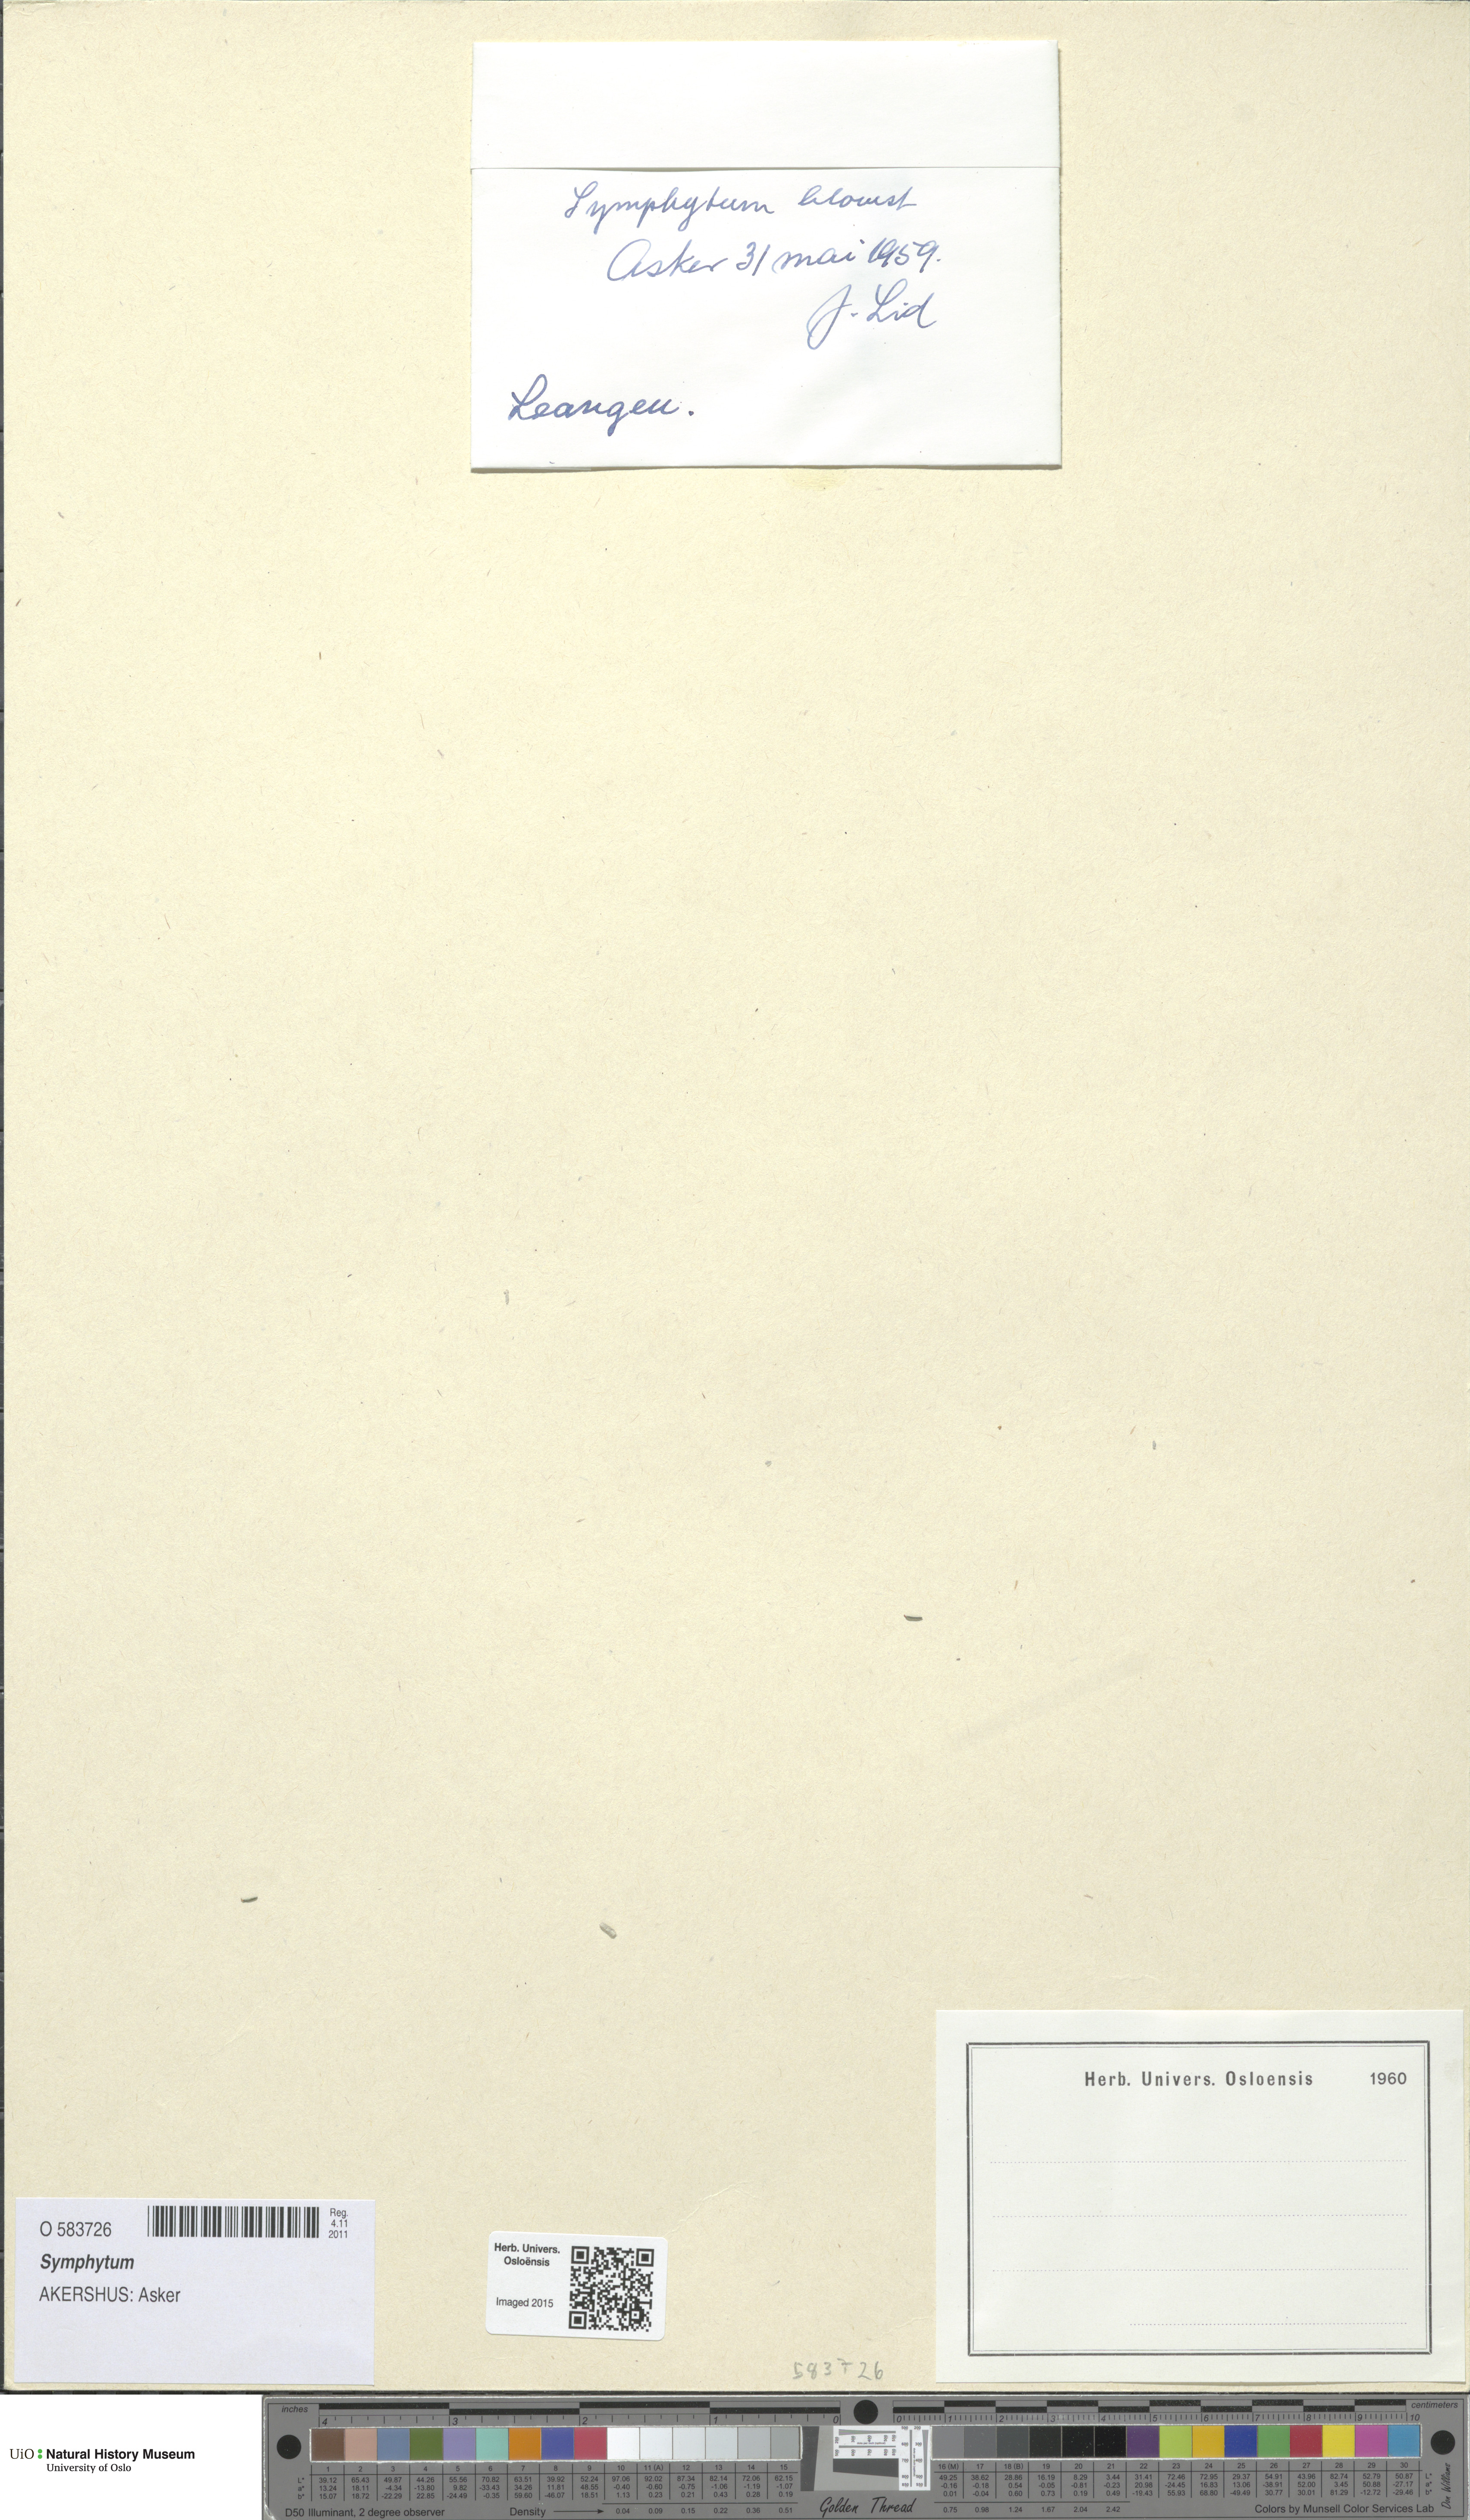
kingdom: Plantae
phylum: Tracheophyta
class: Magnoliopsida
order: Boraginales
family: Boraginaceae
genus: Symphytum
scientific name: Symphytum asperum
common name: Prickly comfrey
